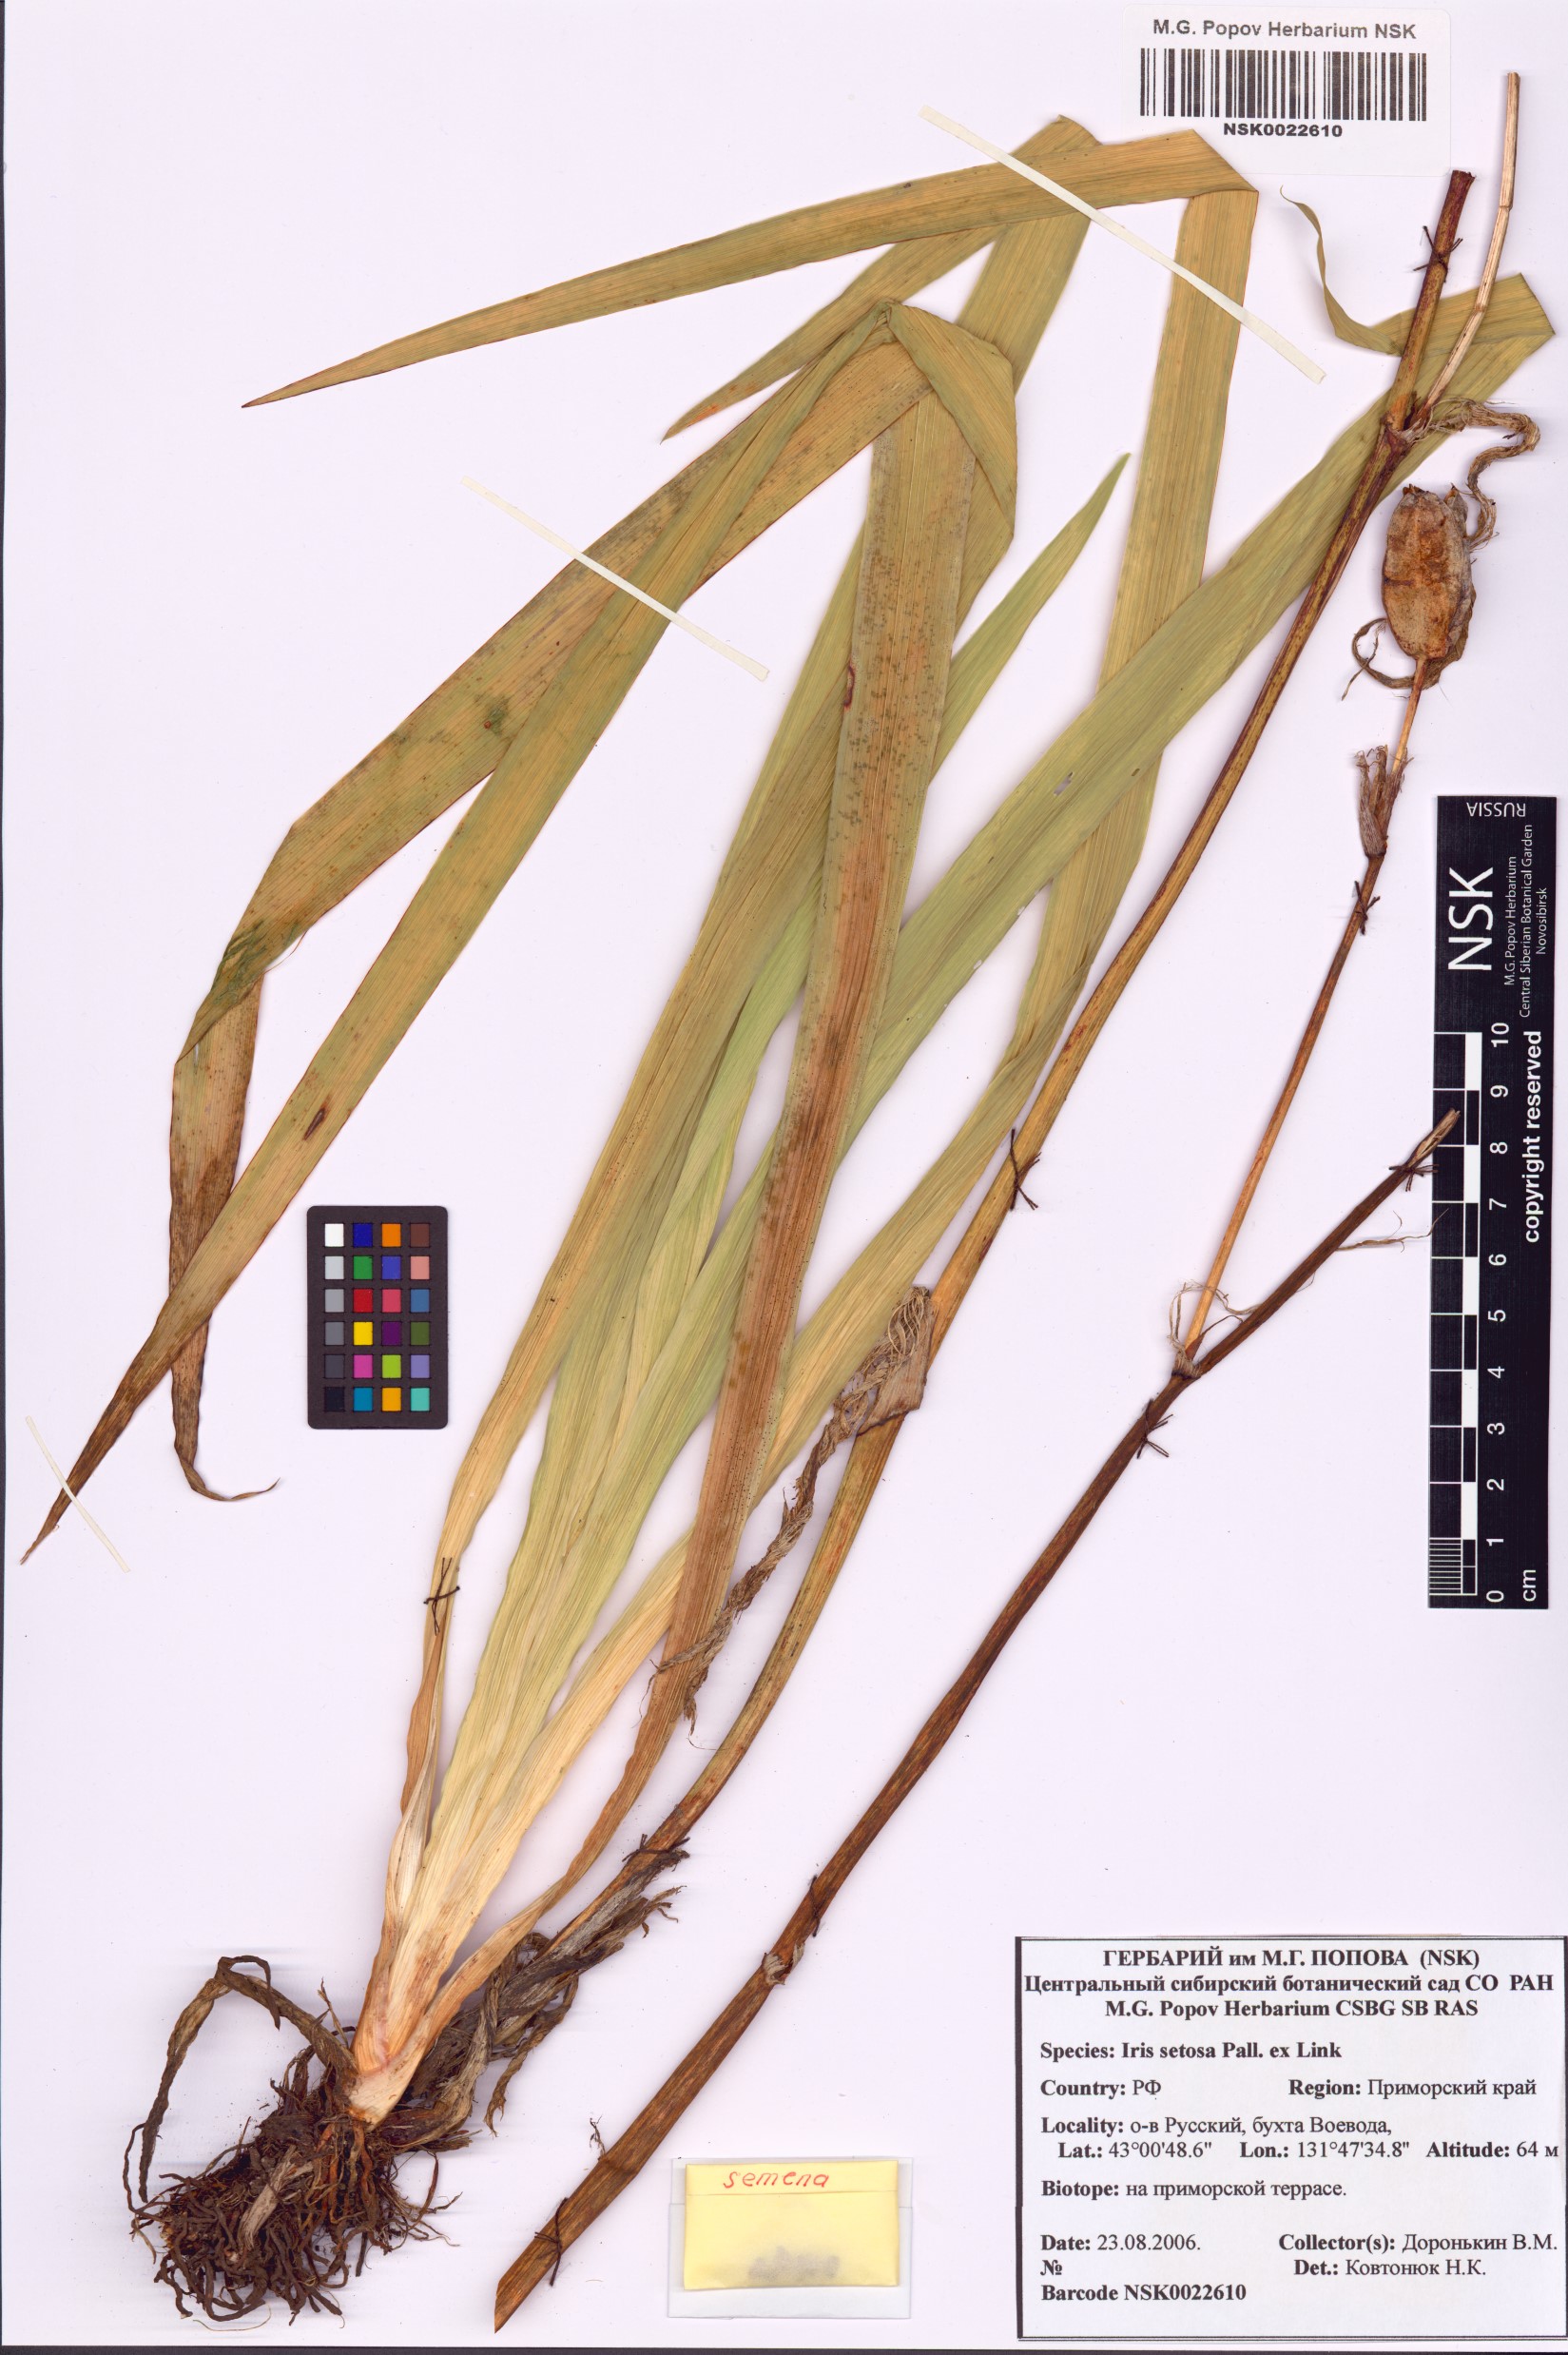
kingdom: Plantae
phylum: Tracheophyta
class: Liliopsida
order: Asparagales
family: Iridaceae
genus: Iris
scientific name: Iris setosa
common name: Arctic blue flag
